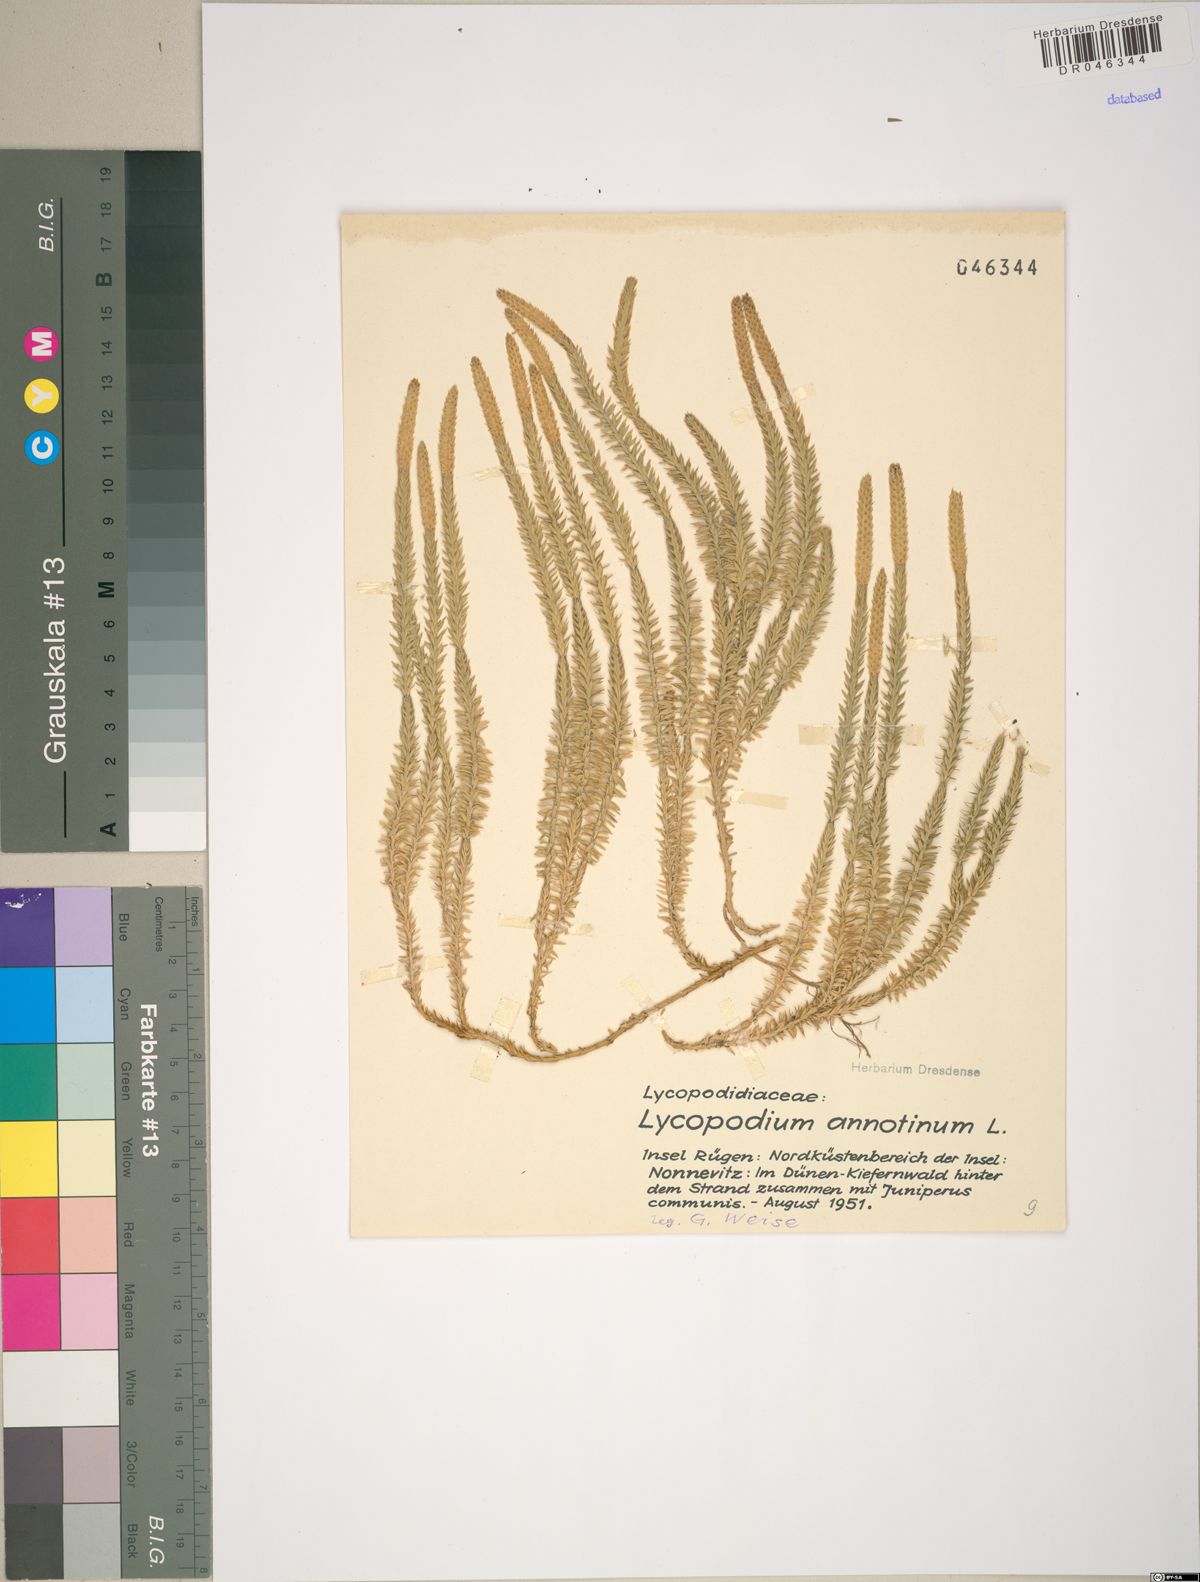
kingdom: Plantae
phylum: Tracheophyta
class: Lycopodiopsida
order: Lycopodiales
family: Lycopodiaceae
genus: Spinulum
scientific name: Spinulum annotinum
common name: Interrupted club-moss
